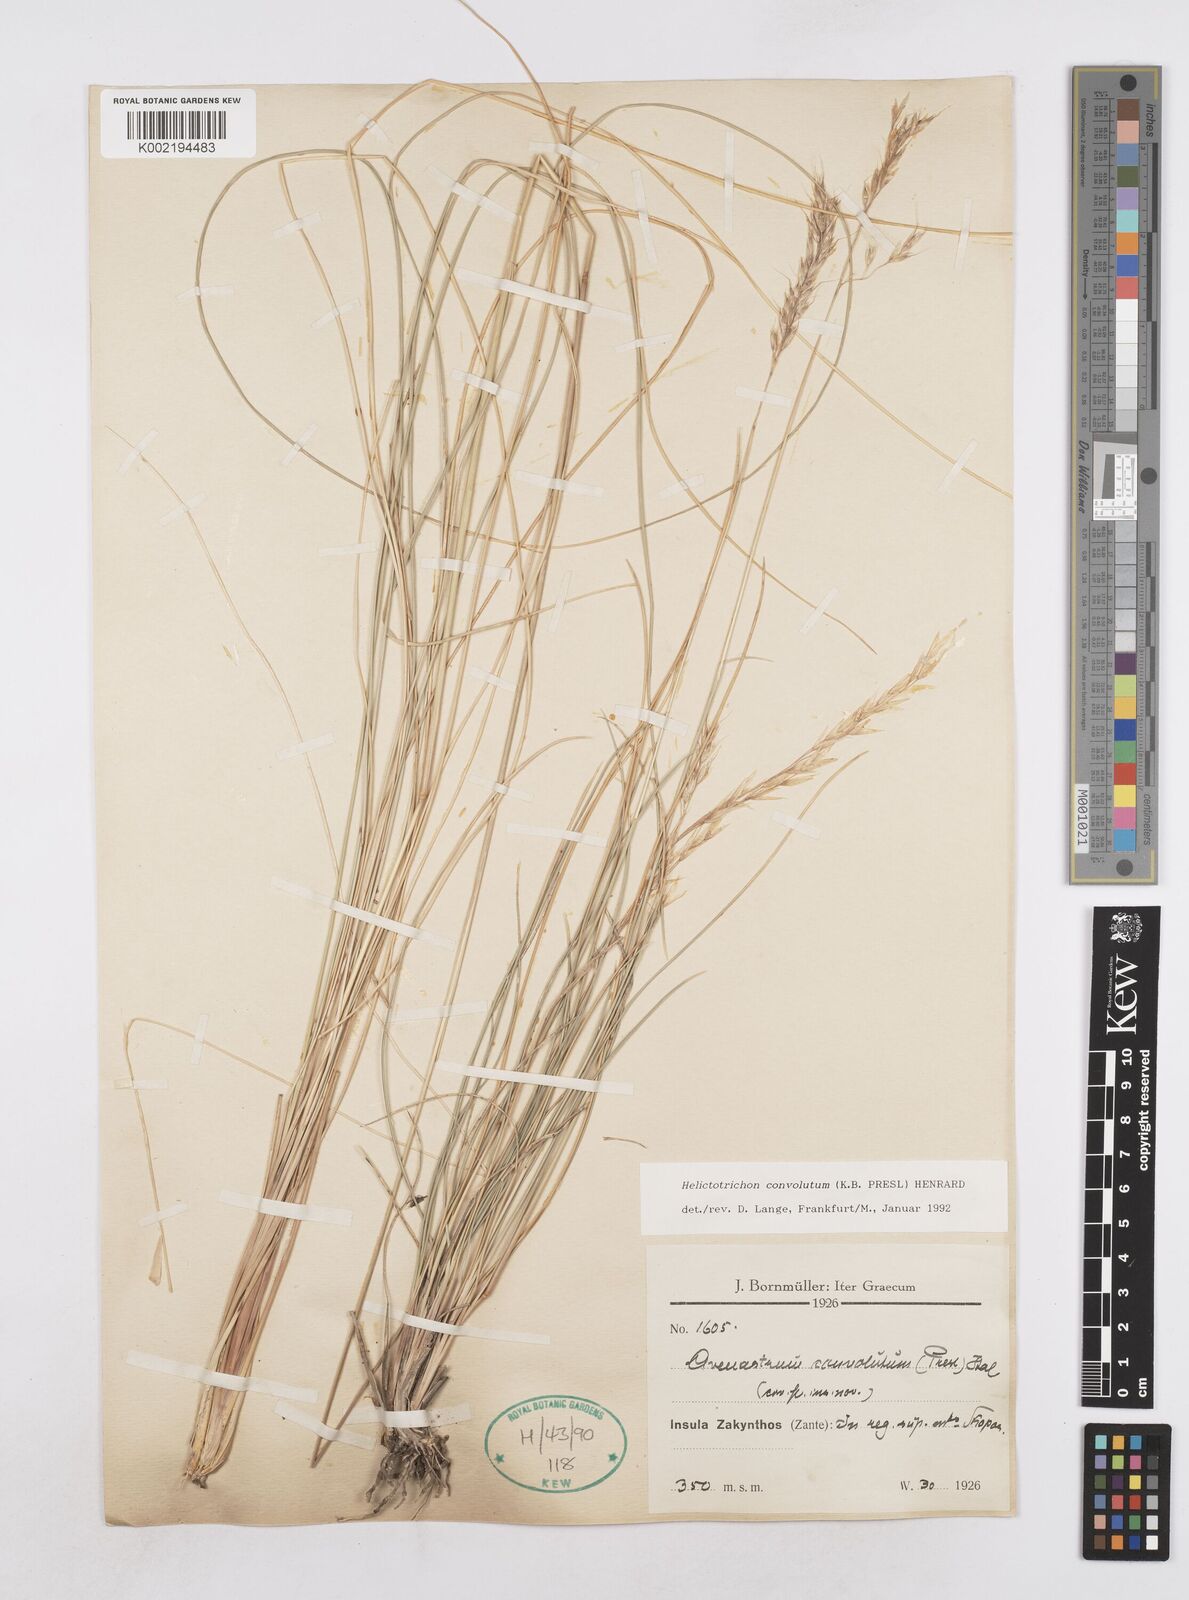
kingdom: Plantae
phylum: Tracheophyta
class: Liliopsida
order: Poales
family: Poaceae
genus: Helictotrichon
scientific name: Helictotrichon convolutum
